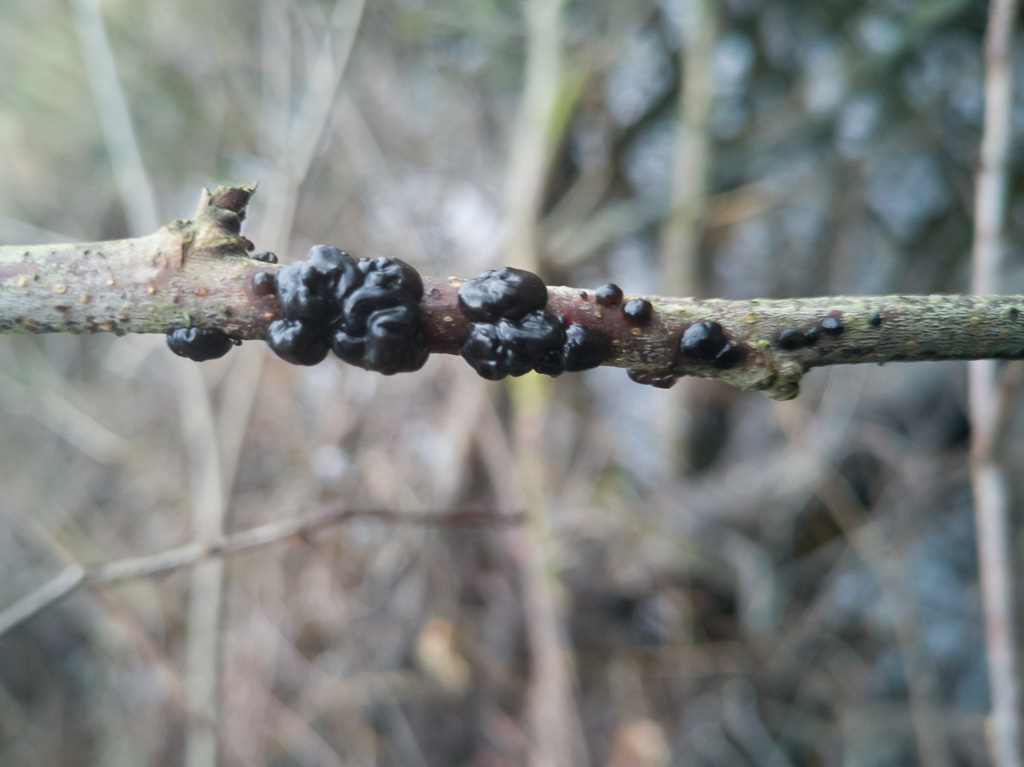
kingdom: Fungi
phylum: Basidiomycota
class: Agaricomycetes
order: Auriculariales
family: Auriculariaceae
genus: Exidia
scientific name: Exidia nigricans
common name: almindelig bævretop
